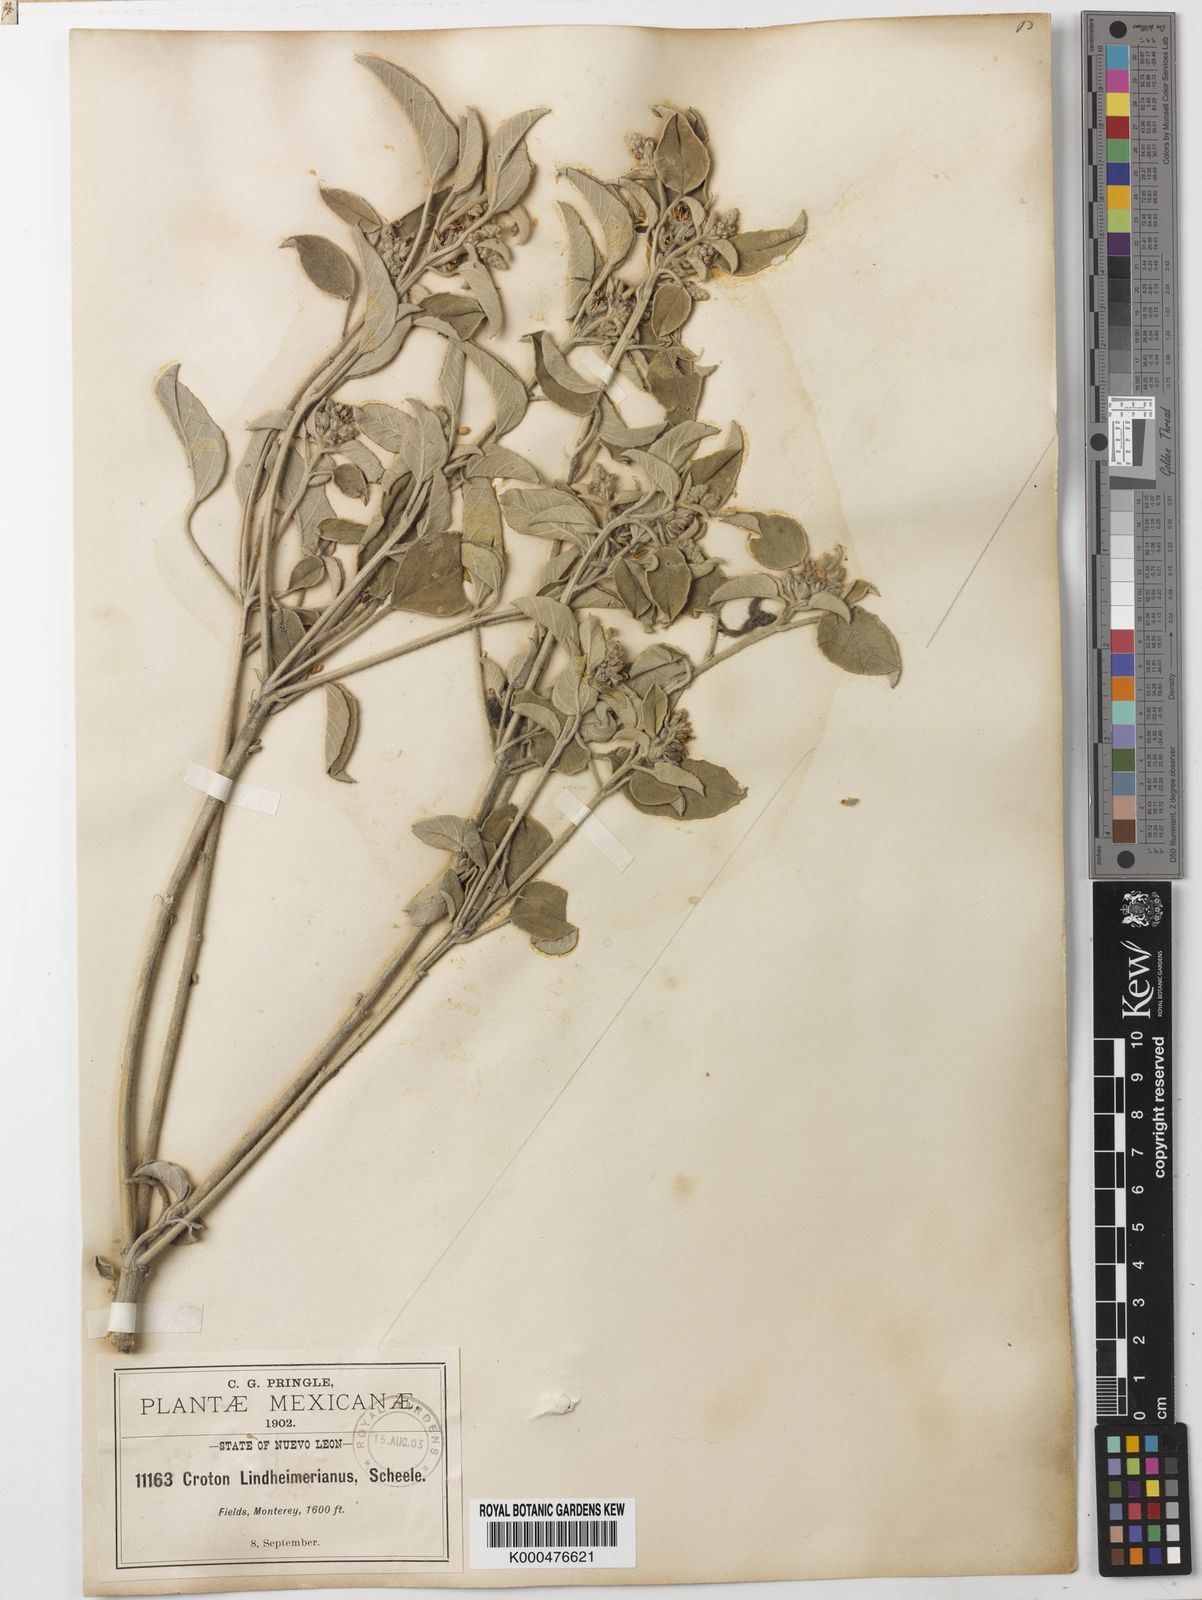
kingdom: Plantae
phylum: Tracheophyta
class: Magnoliopsida
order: Malpighiales
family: Euphorbiaceae
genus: Croton
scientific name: Croton capitatus
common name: Woolly croton
